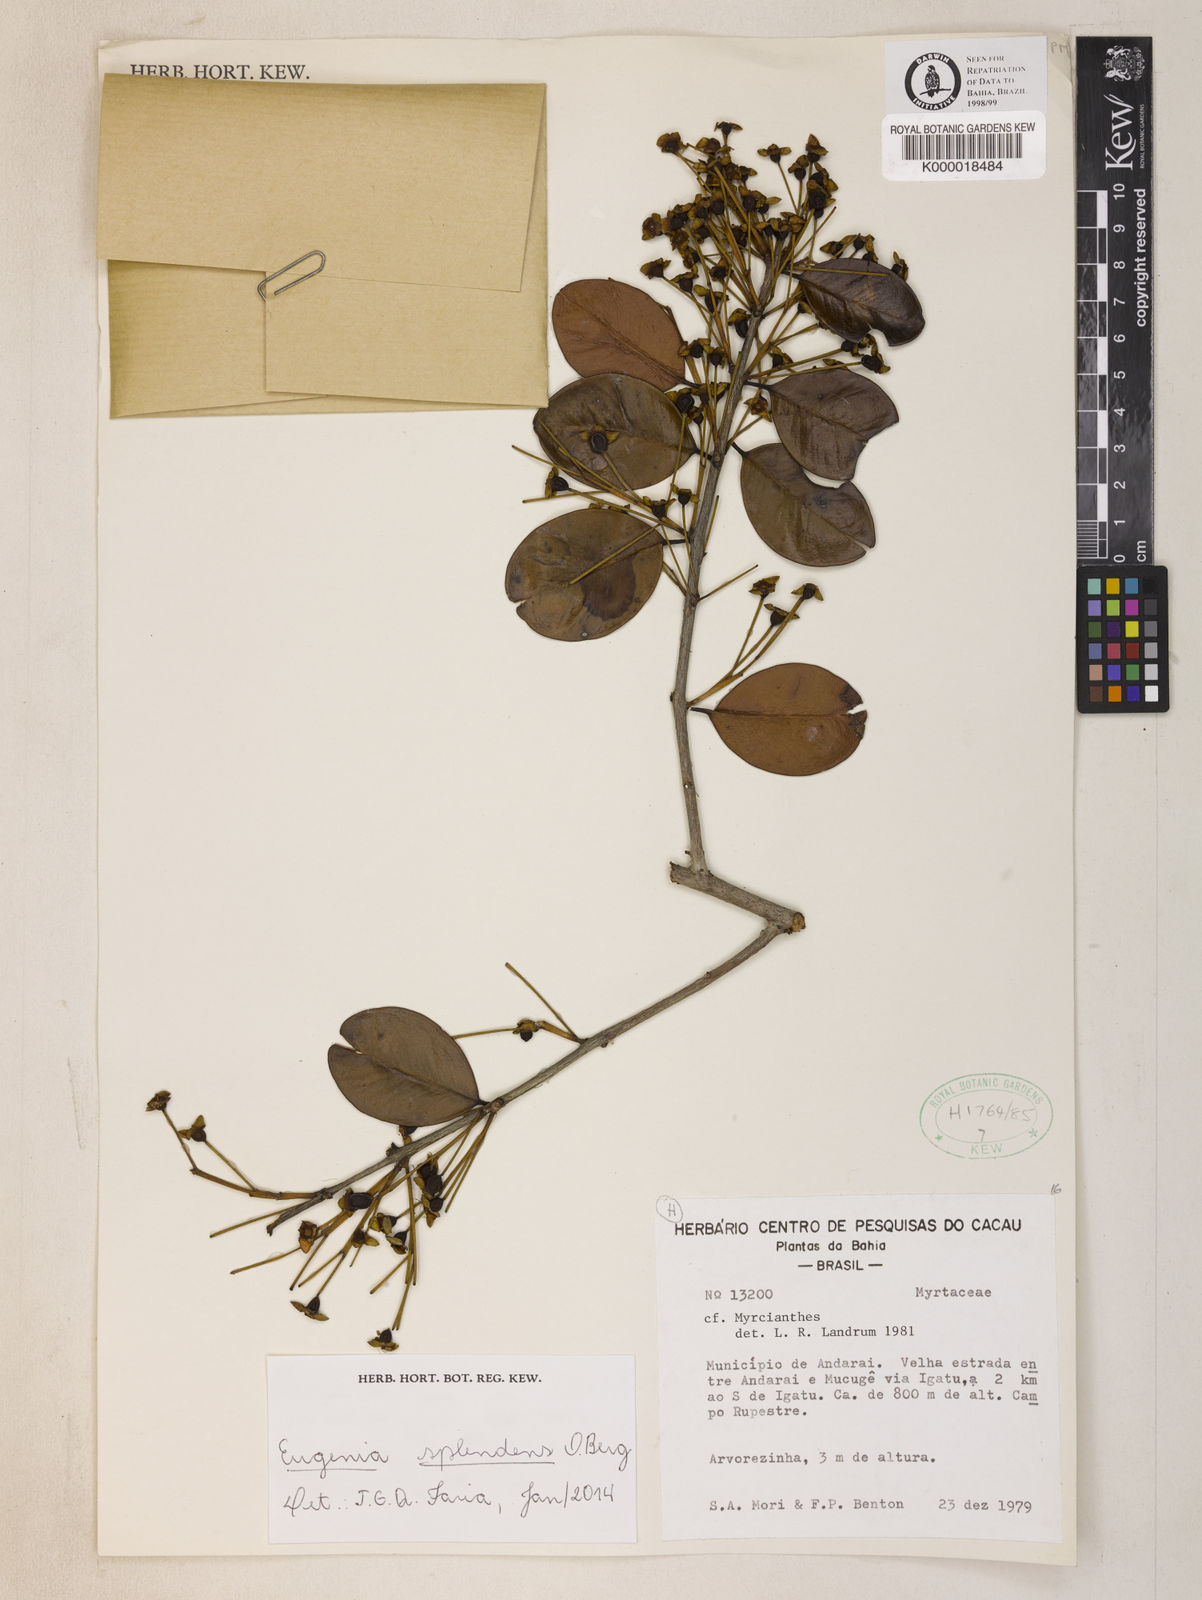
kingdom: Plantae
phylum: Tracheophyta
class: Magnoliopsida
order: Myrtales
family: Myrtaceae
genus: Eugenia
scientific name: Eugenia splendens
